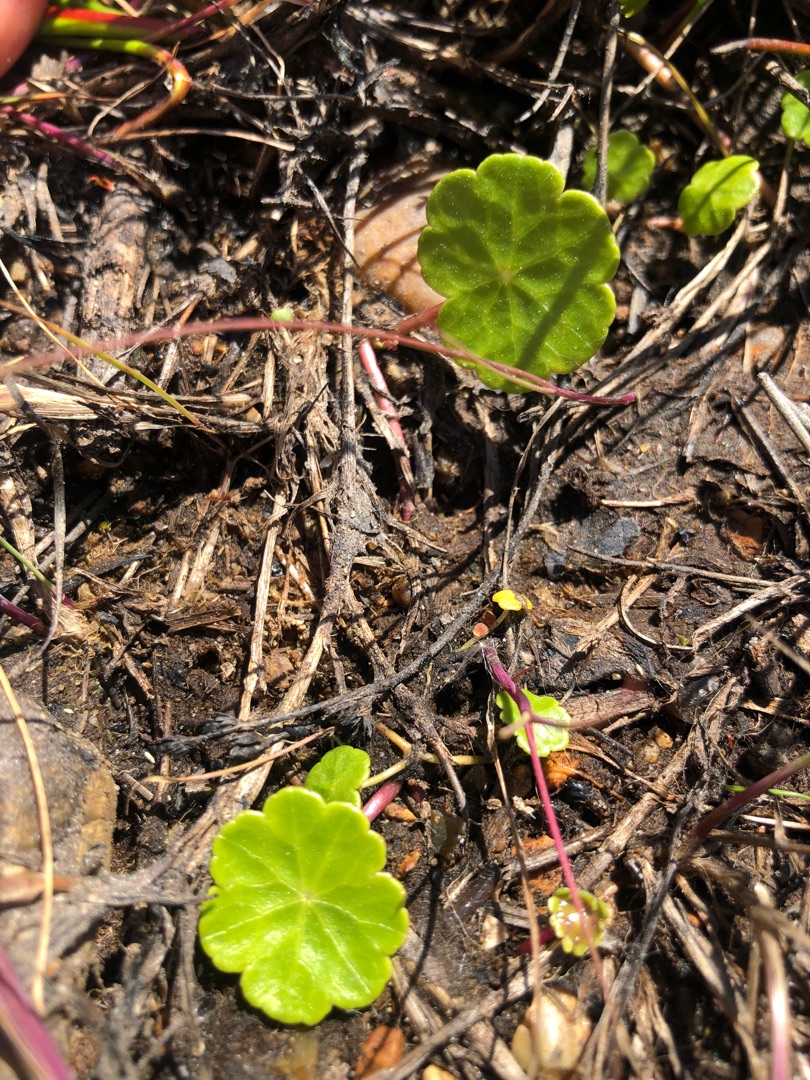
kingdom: Plantae
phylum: Tracheophyta
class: Magnoliopsida
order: Apiales
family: Araliaceae
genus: Hydrocotyle
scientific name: Hydrocotyle vulgaris
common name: Vandnavle
